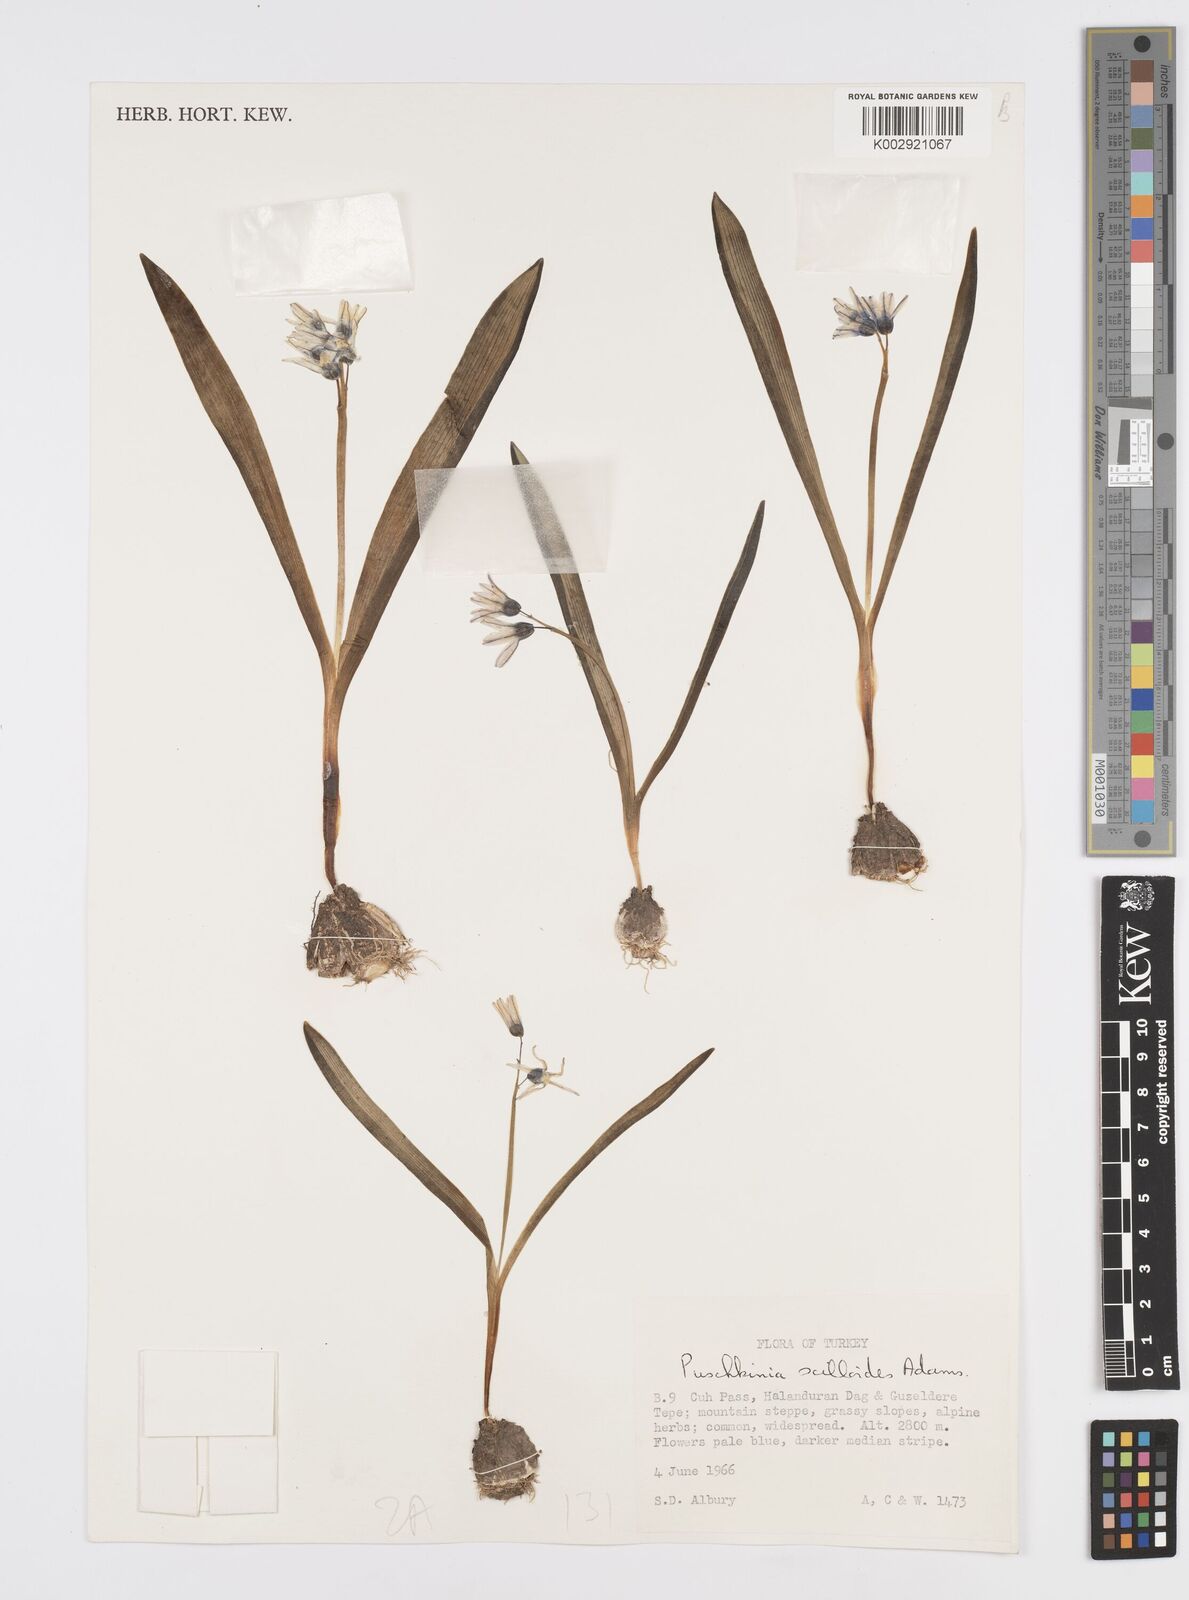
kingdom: Plantae
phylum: Tracheophyta
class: Liliopsida
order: Asparagales
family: Asparagaceae
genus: Puschkinia
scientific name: Puschkinia scilloides
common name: Striped squill
